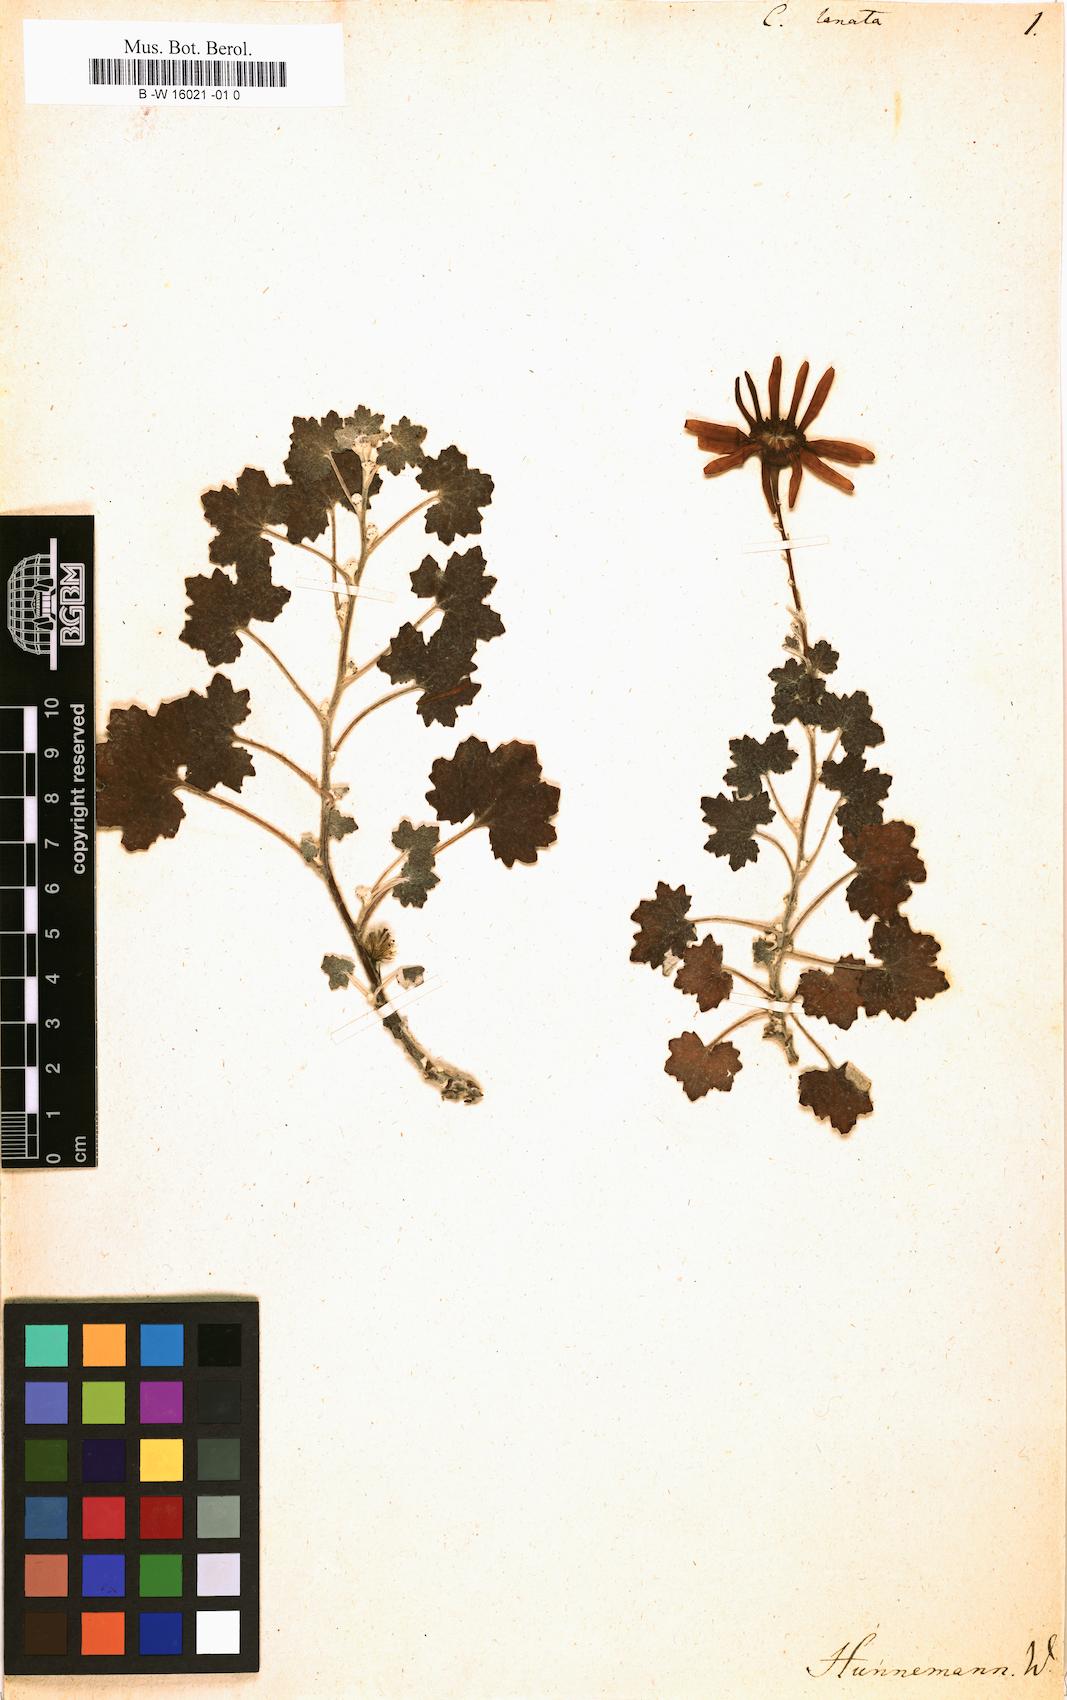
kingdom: Plantae
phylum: Tracheophyta
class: Magnoliopsida
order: Asterales
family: Asteraceae
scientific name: Asteraceae
